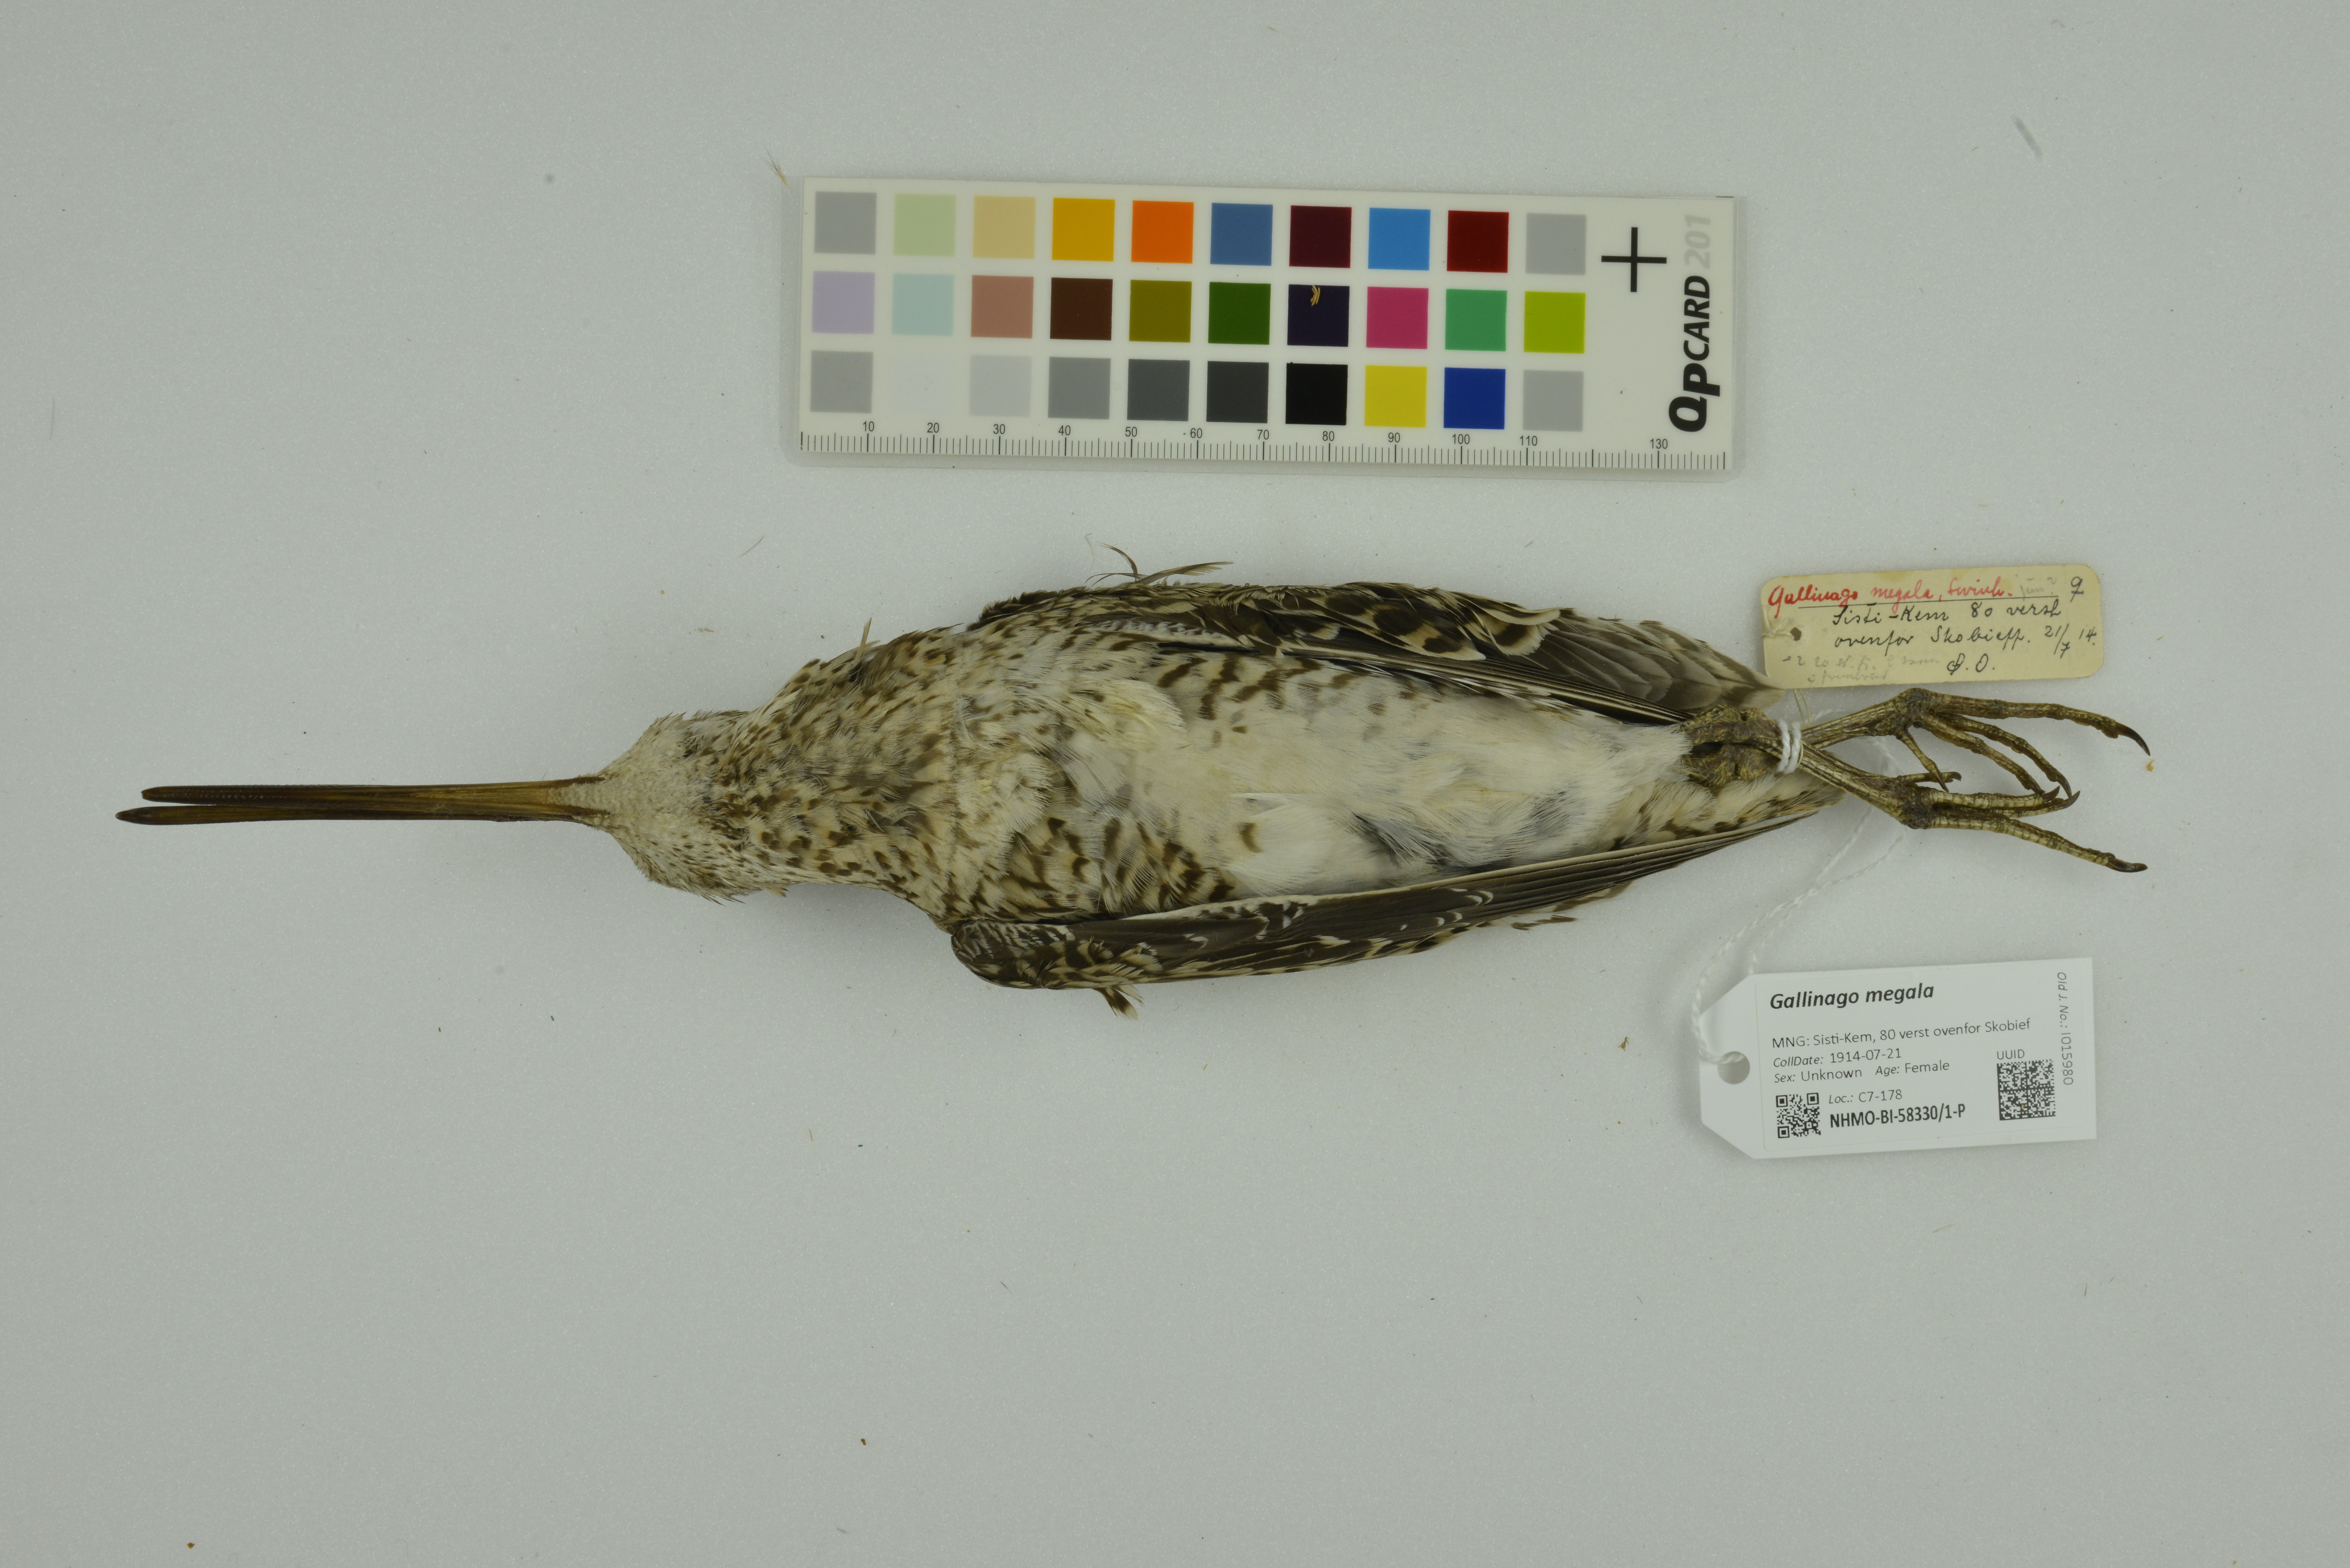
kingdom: Animalia
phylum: Chordata
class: Aves
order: Charadriiformes
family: Scolopacidae
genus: Gallinago
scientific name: Gallinago megala
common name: Swinhoe's snipe
